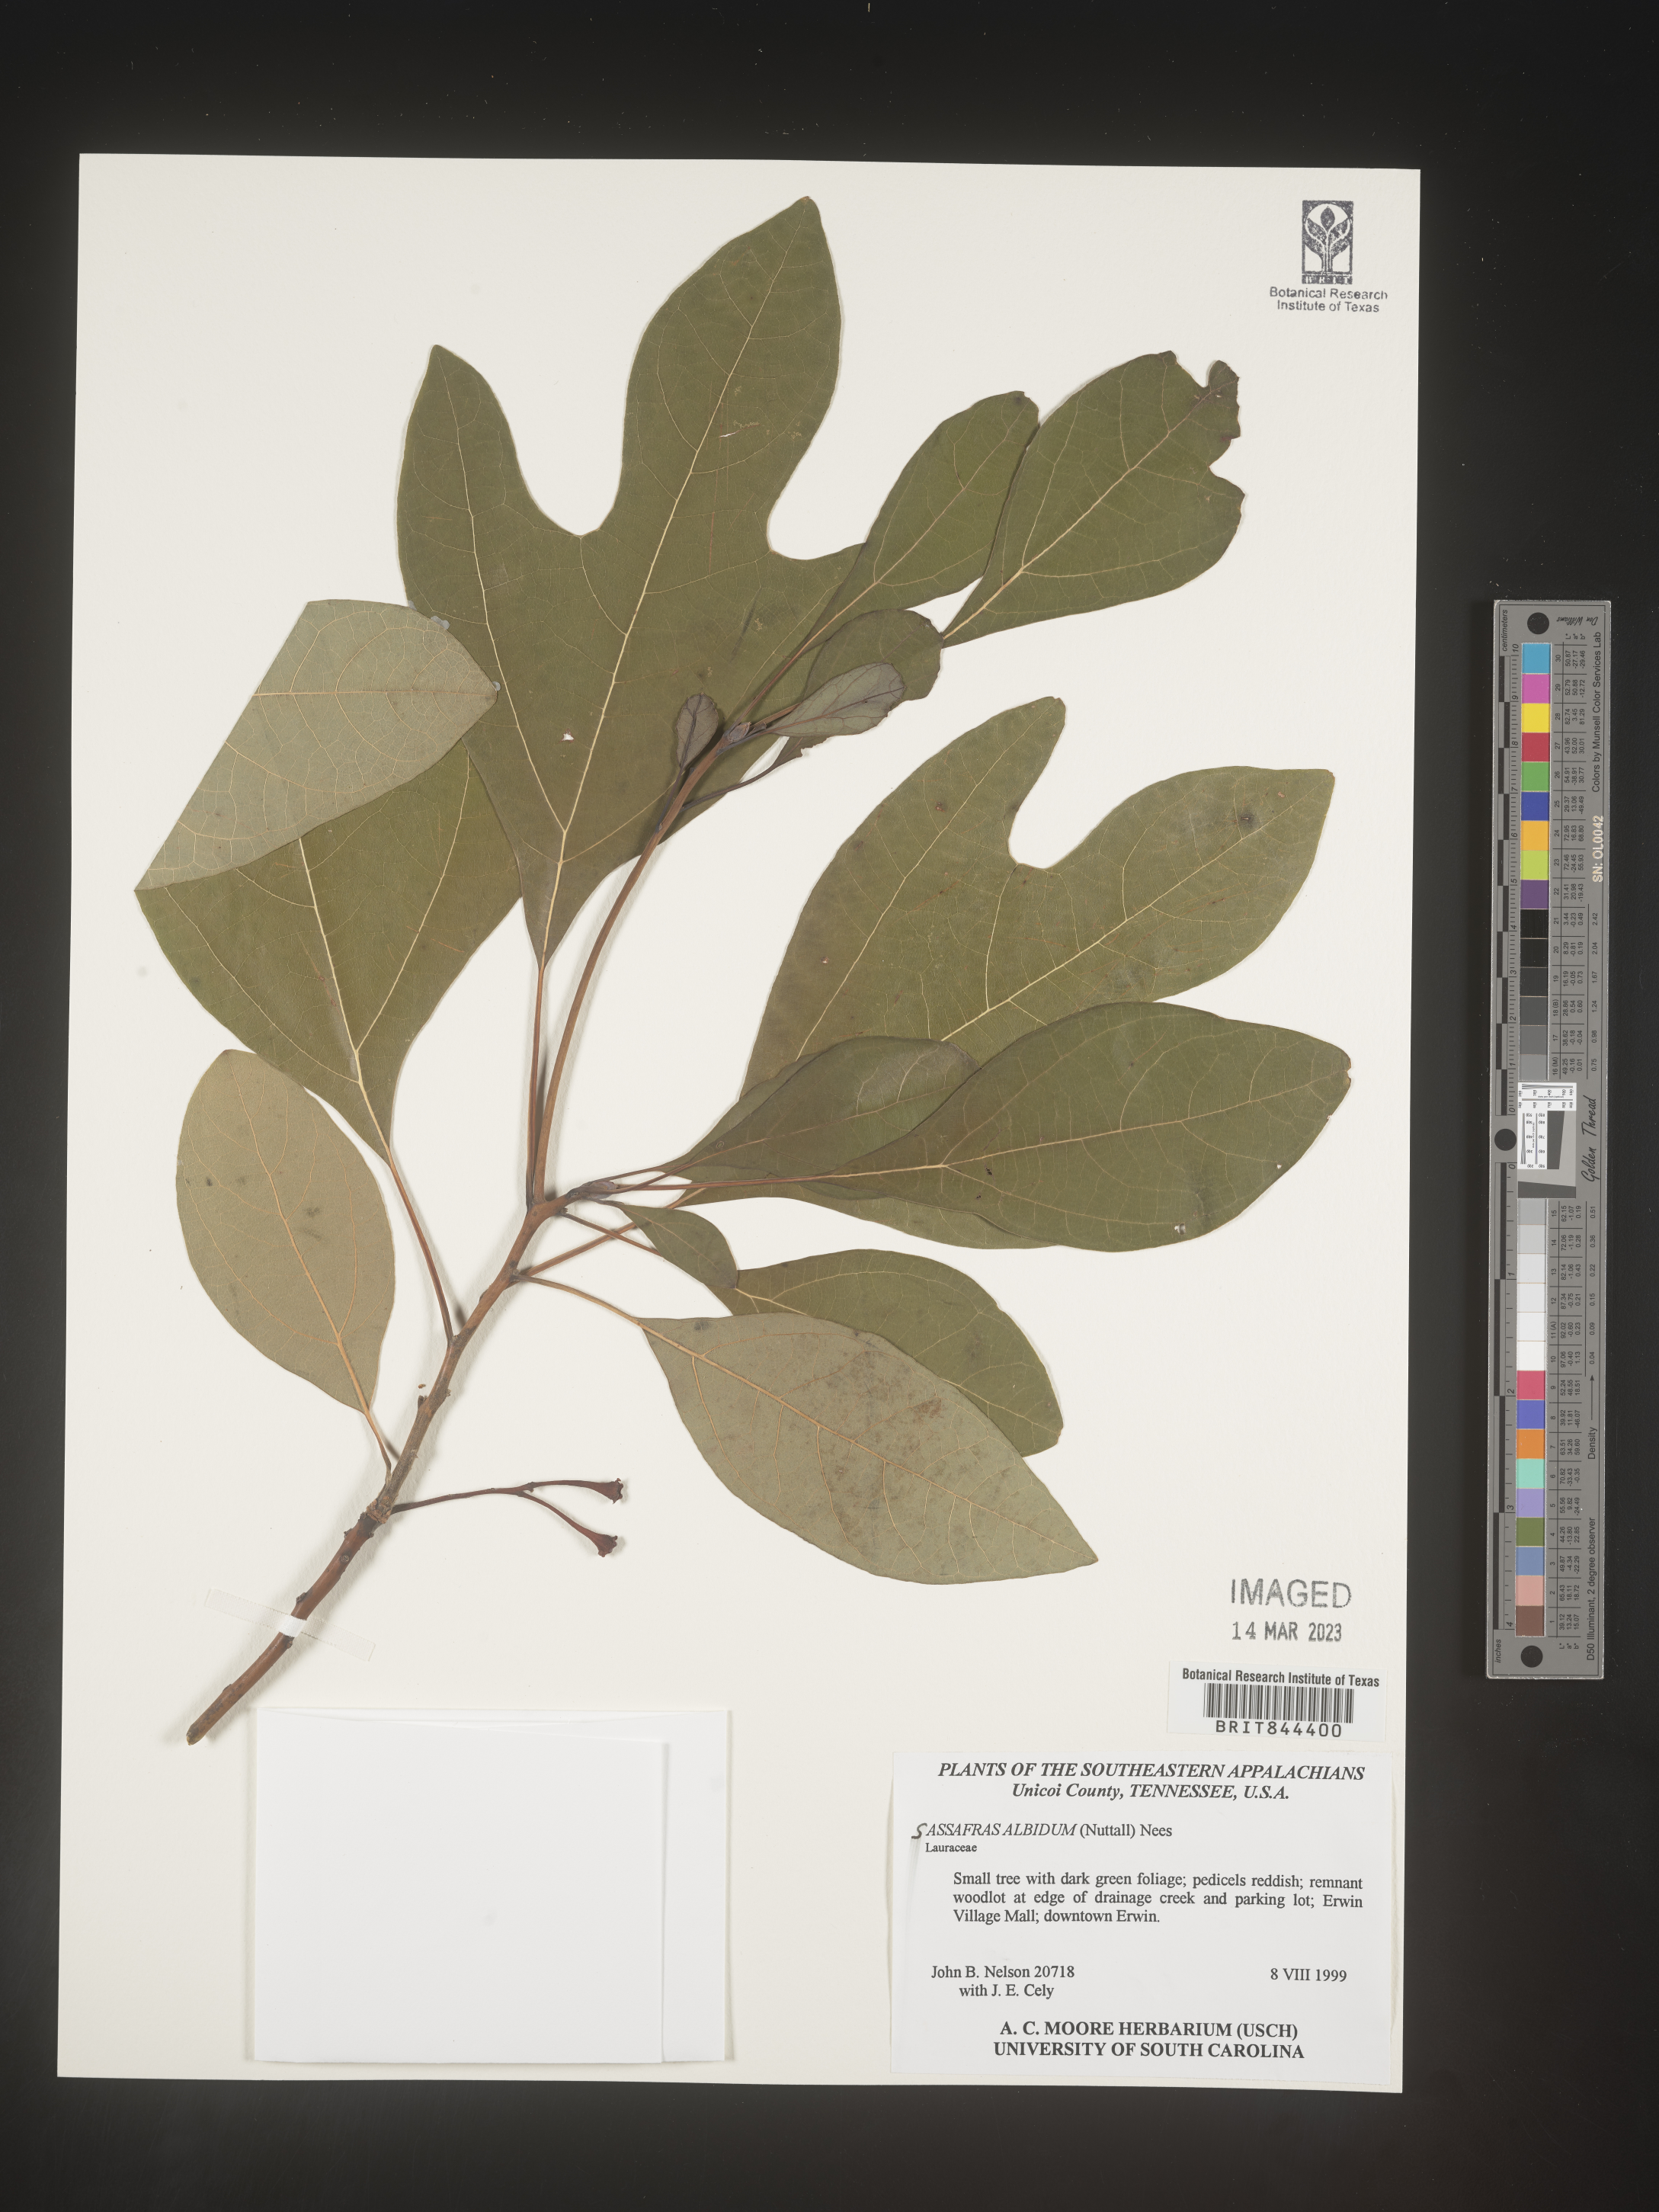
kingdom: Plantae
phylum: Tracheophyta
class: Magnoliopsida
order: Laurales
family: Lauraceae
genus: Sassafras
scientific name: Sassafras albidum
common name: Sassafras
